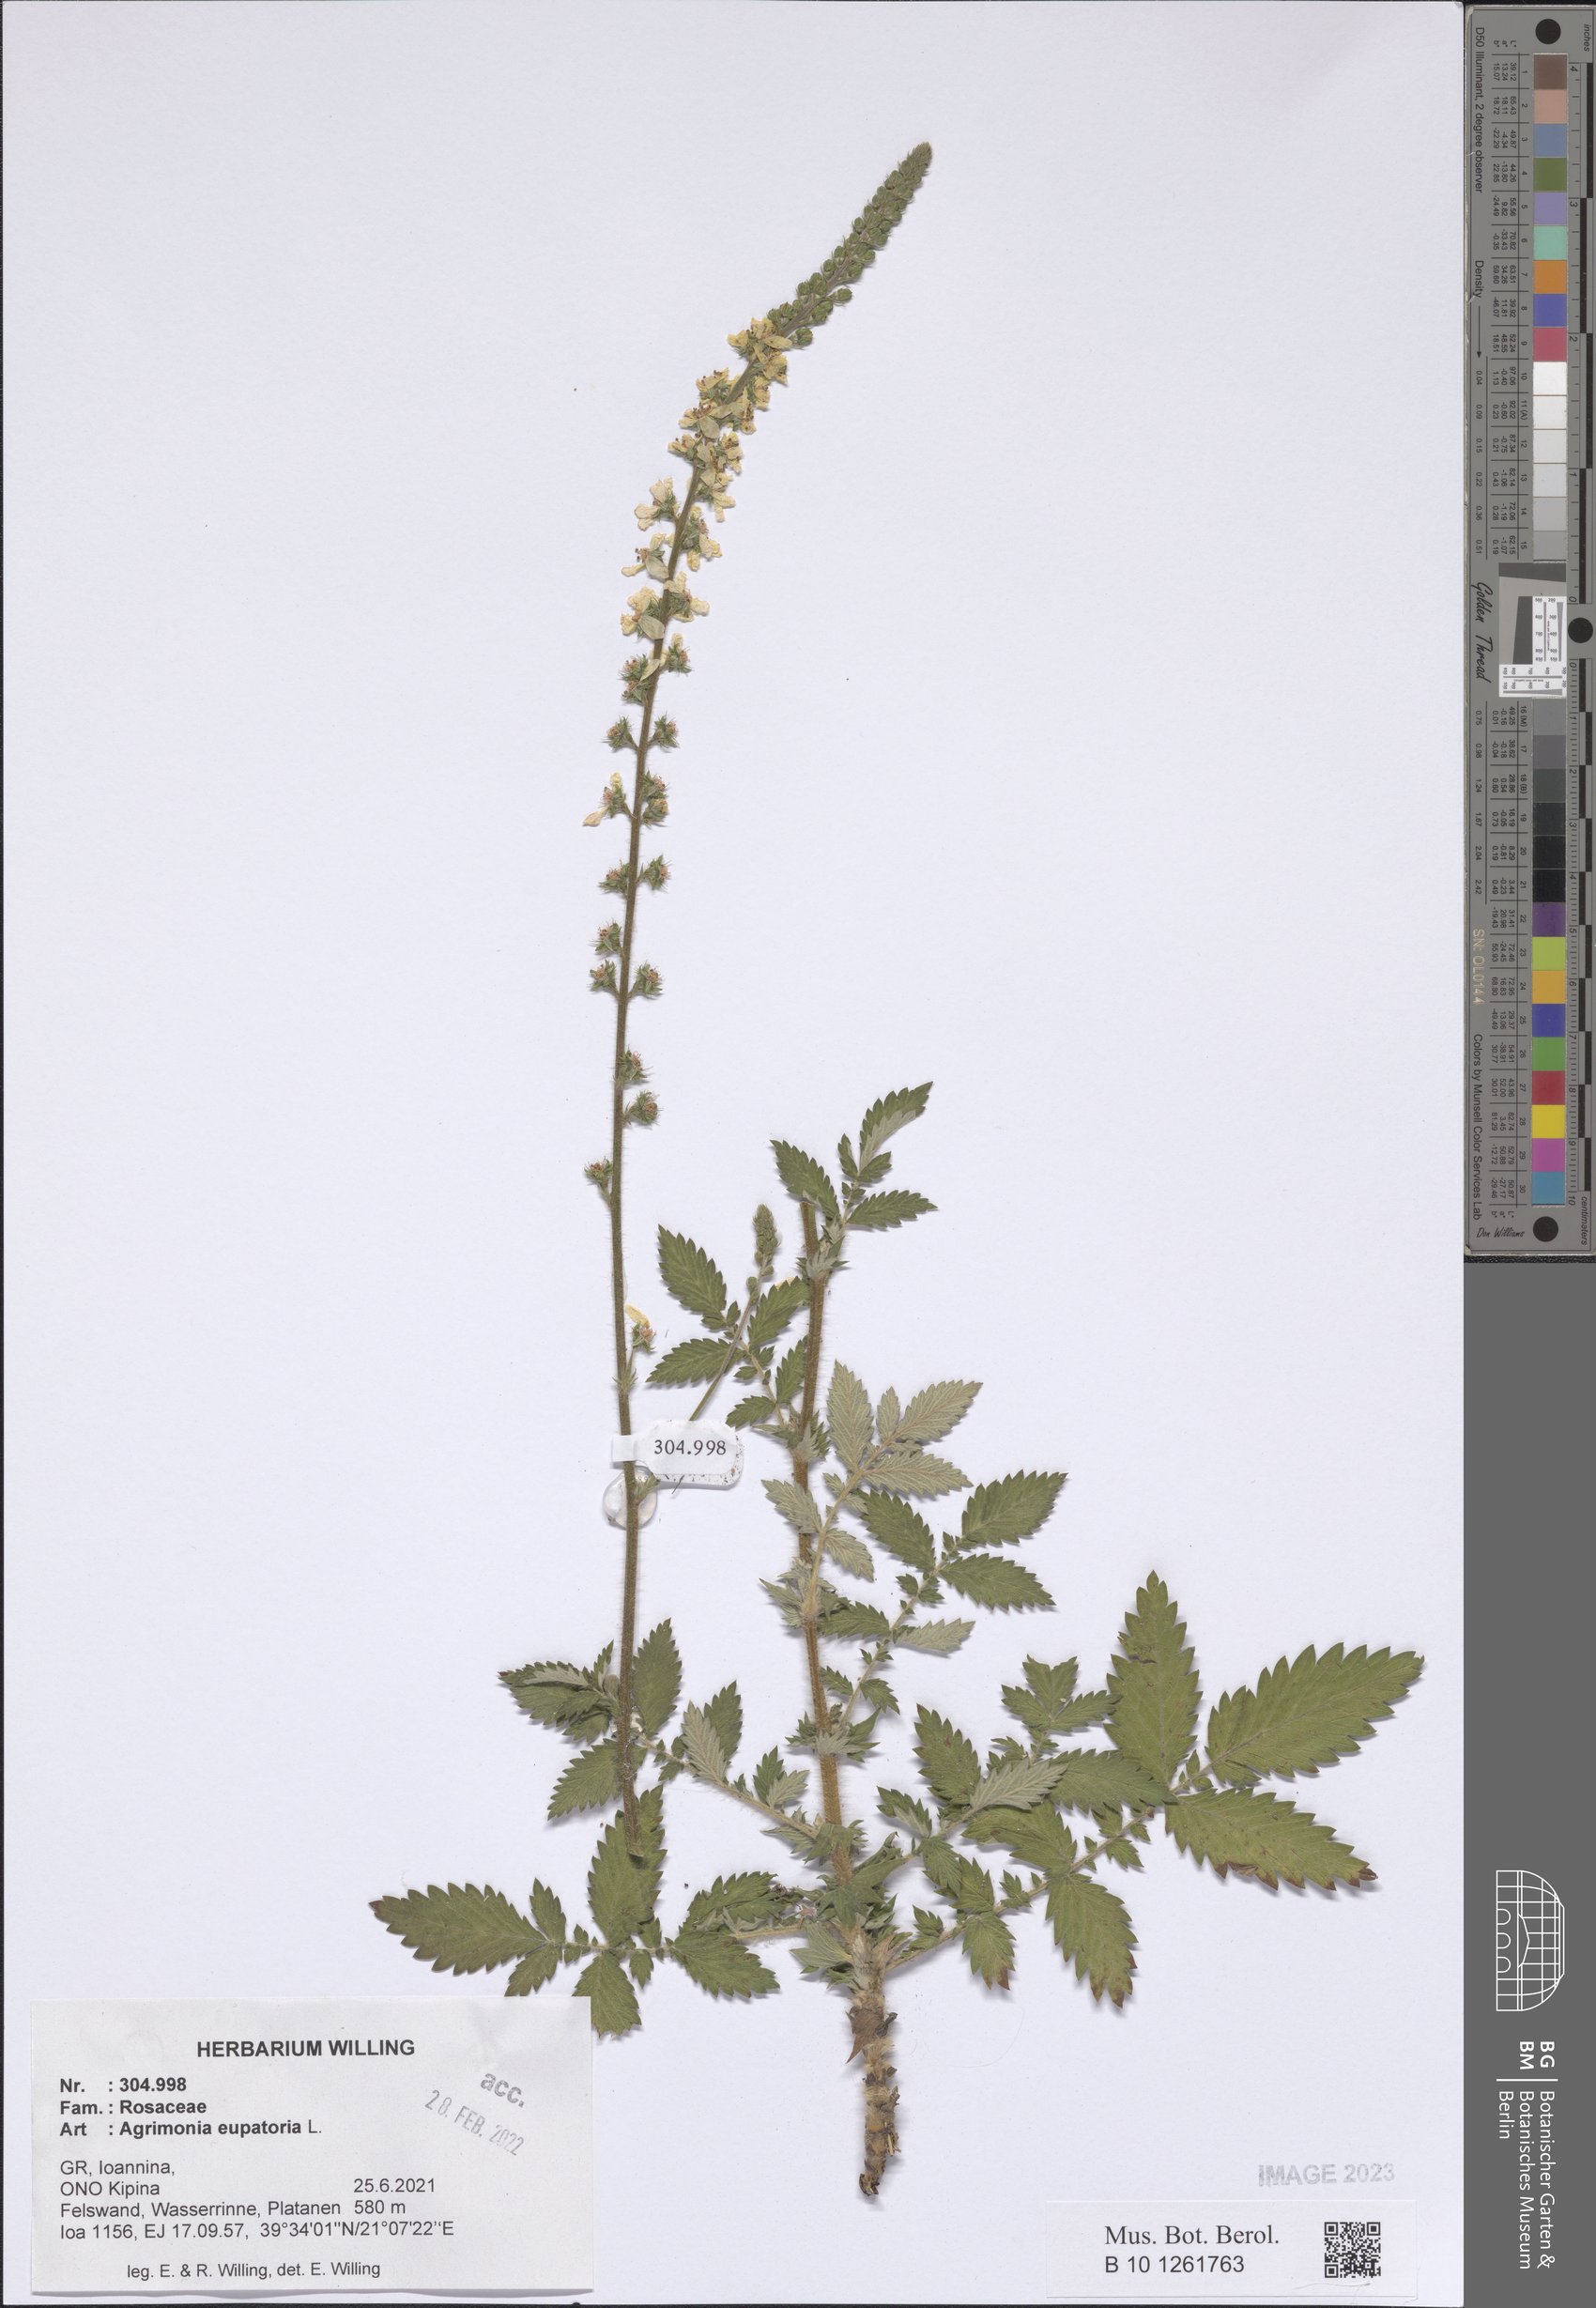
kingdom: Plantae
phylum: Tracheophyta
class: Magnoliopsida
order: Rosales
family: Rosaceae
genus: Agrimonia
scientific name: Agrimonia eupatoria
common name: Agrimony
